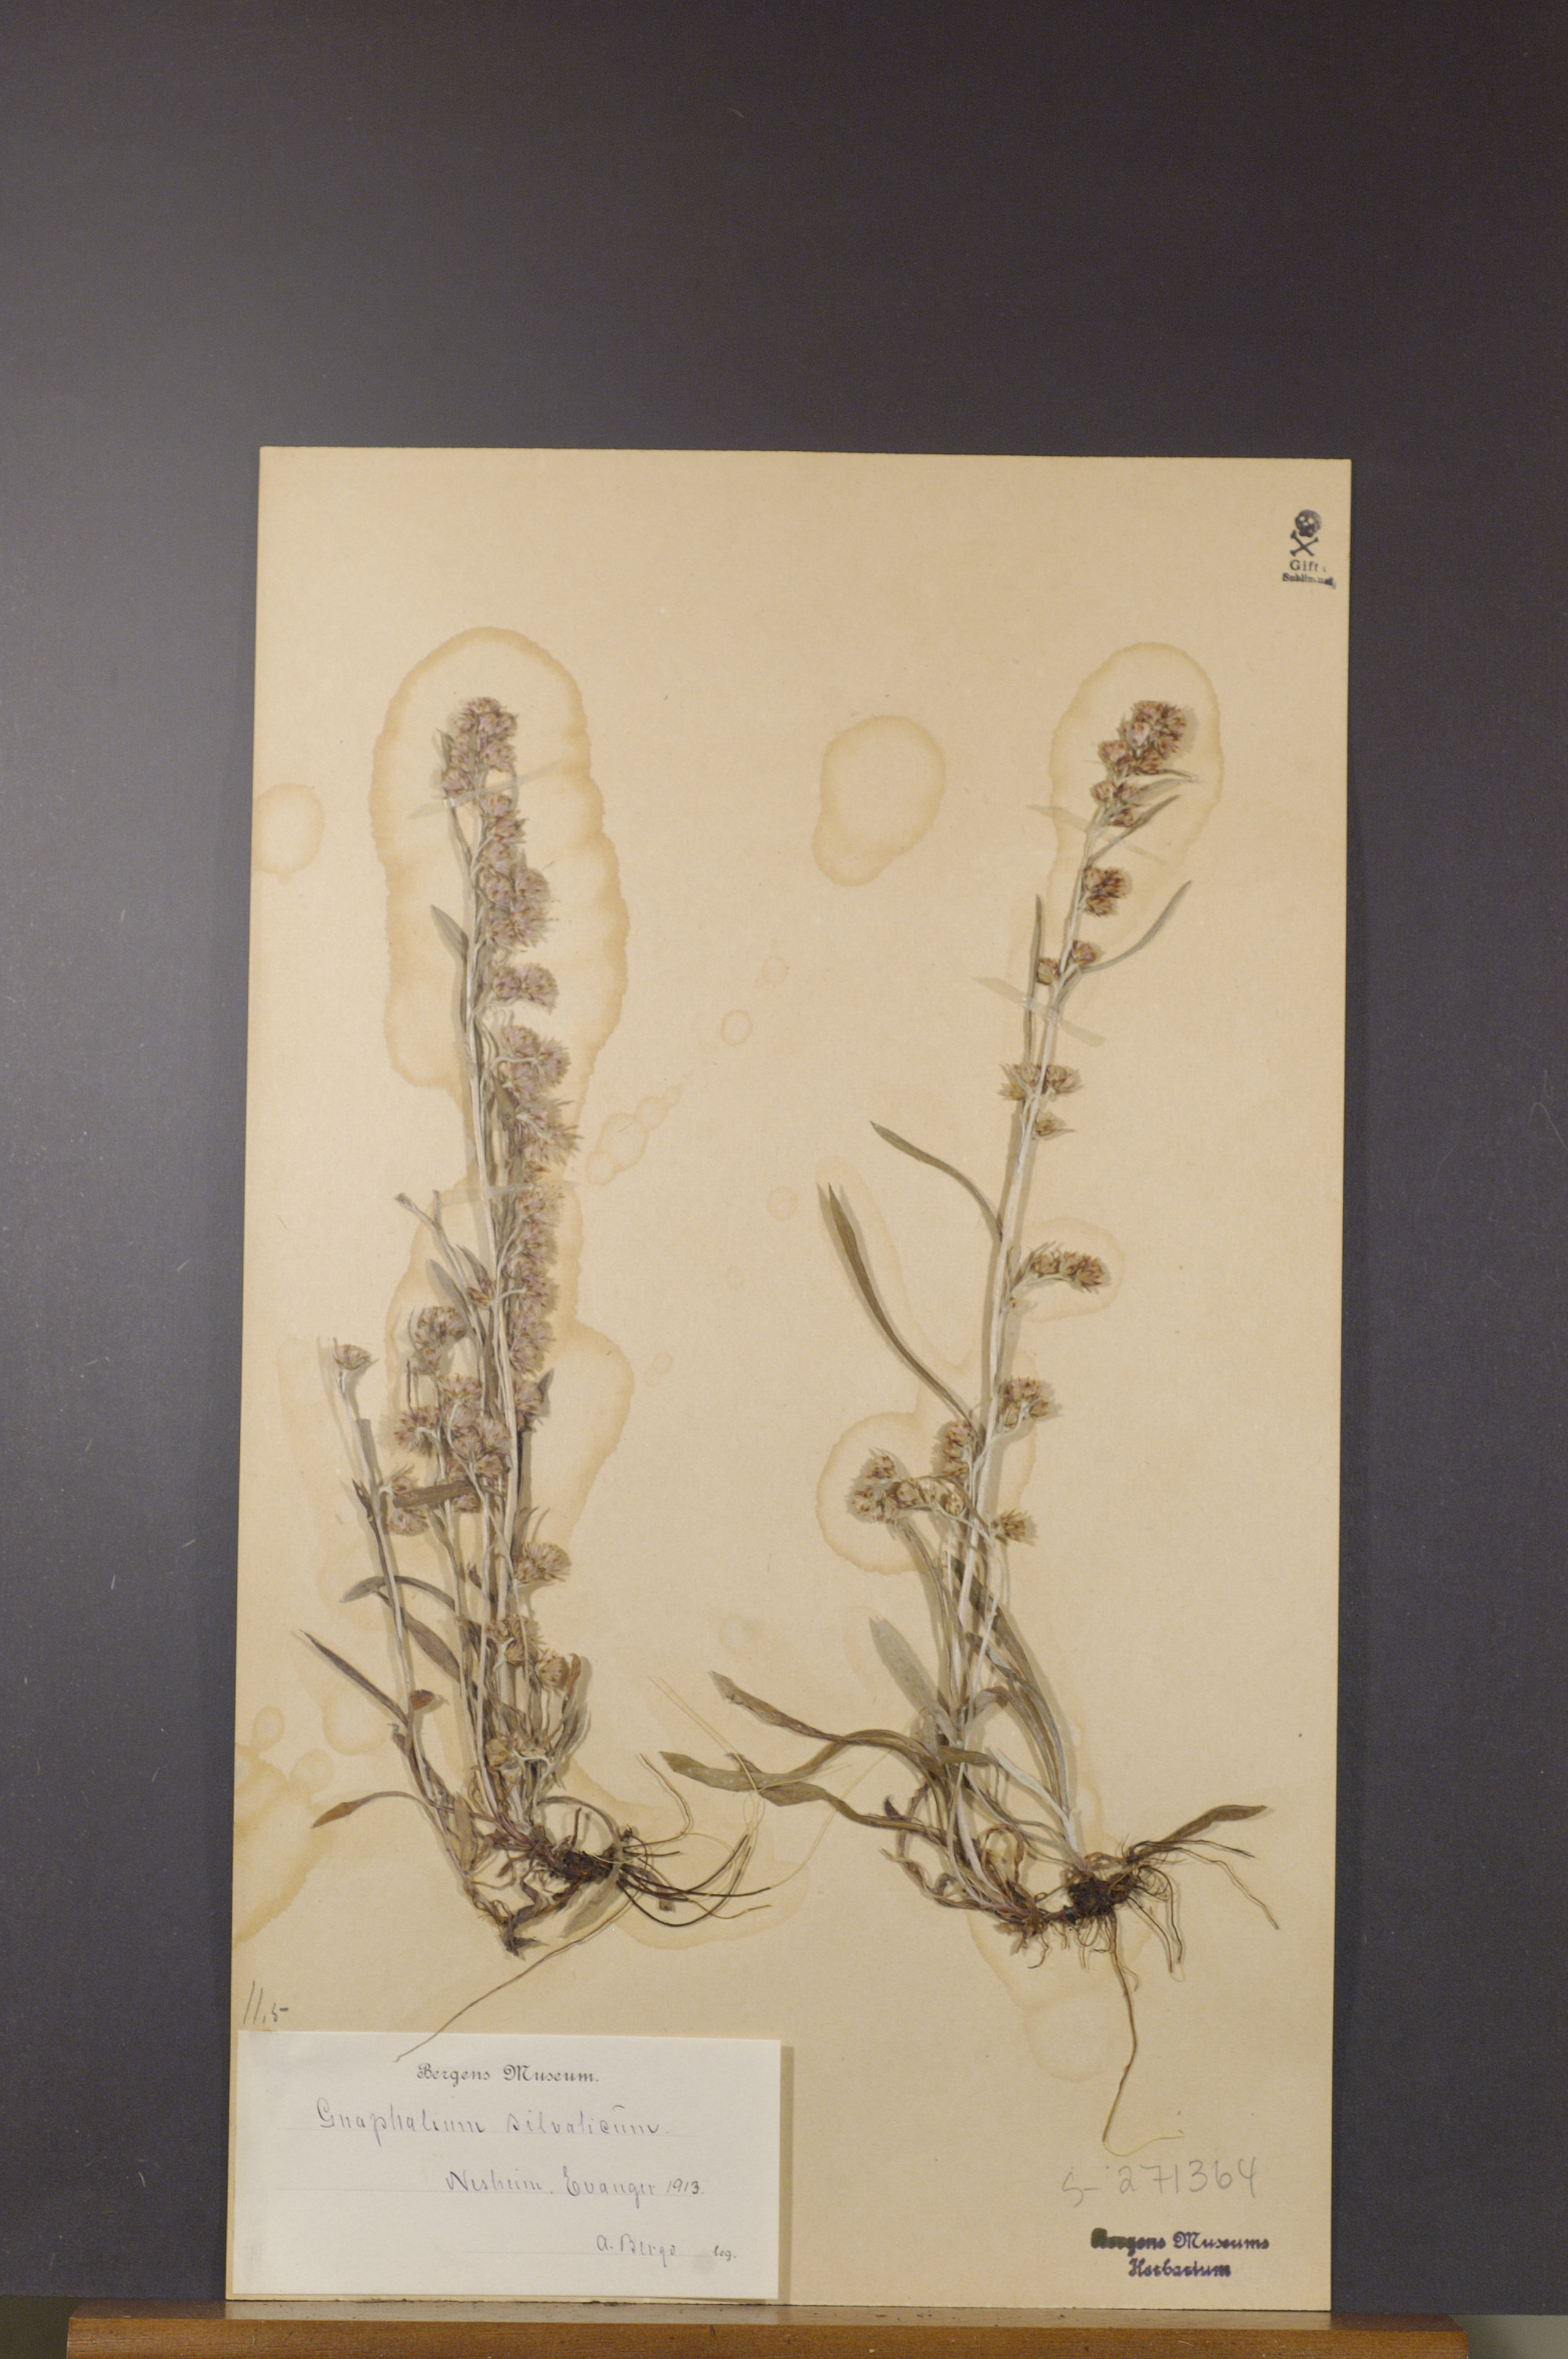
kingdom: Plantae
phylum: Tracheophyta
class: Magnoliopsida
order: Asterales
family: Asteraceae
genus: Omalotheca
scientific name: Omalotheca sylvatica
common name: Heath cudweed
